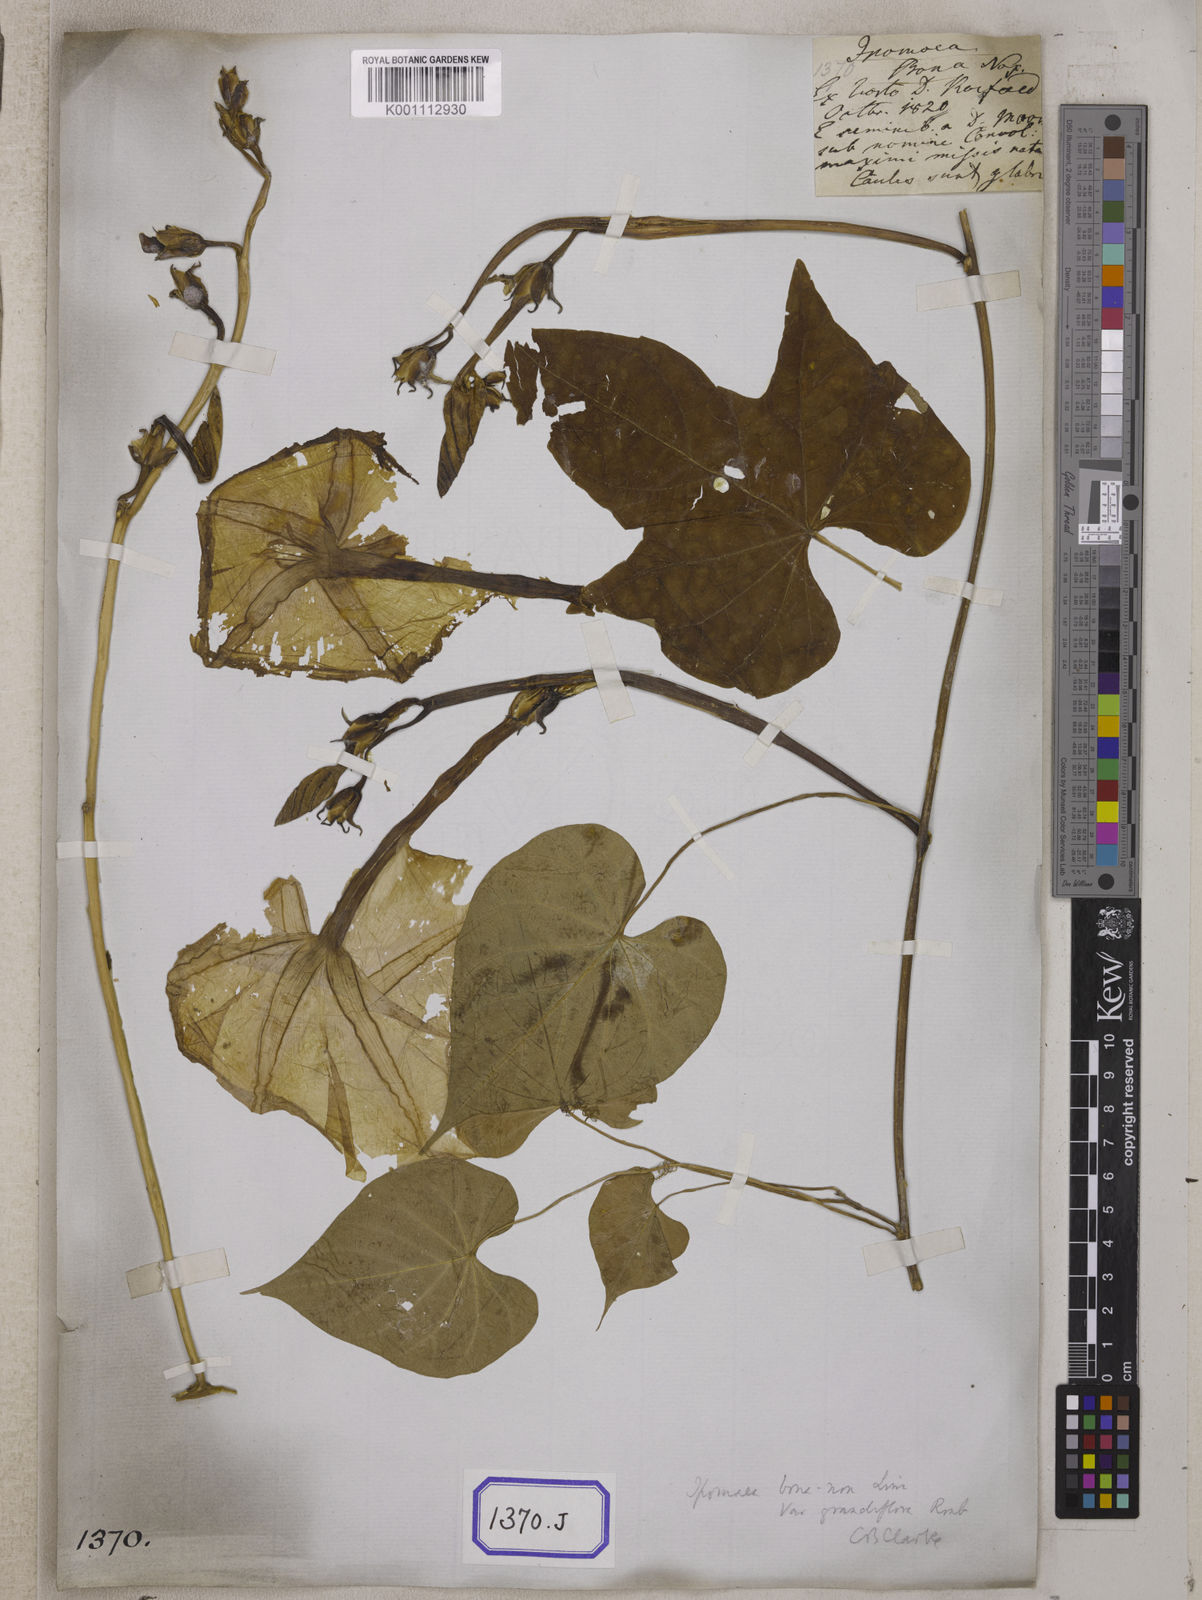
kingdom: Plantae
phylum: Tracheophyta
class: Magnoliopsida
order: Solanales
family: Convolvulaceae
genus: Convolvulus
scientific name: Convolvulus
